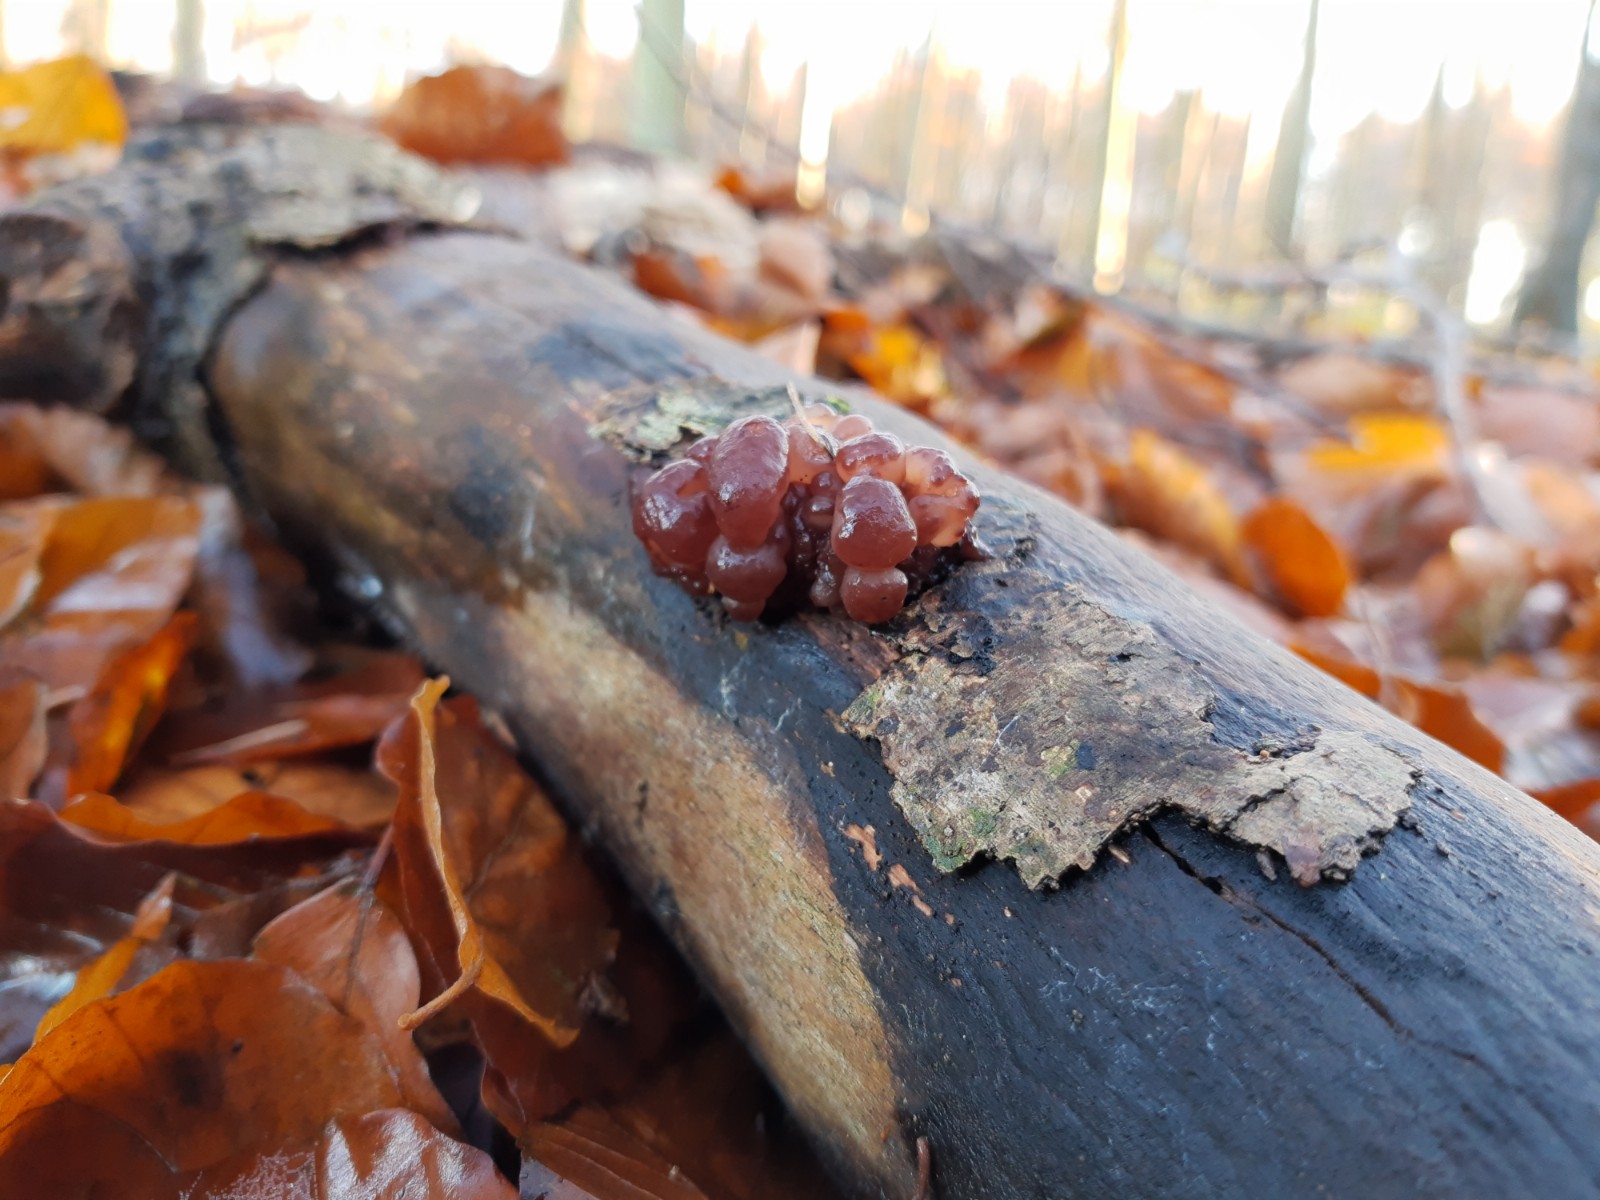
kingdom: Fungi
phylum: Ascomycota
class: Leotiomycetes
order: Helotiales
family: Gelatinodiscaceae
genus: Ascotremella
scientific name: Ascotremella faginea
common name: hjerne-bævreskive
